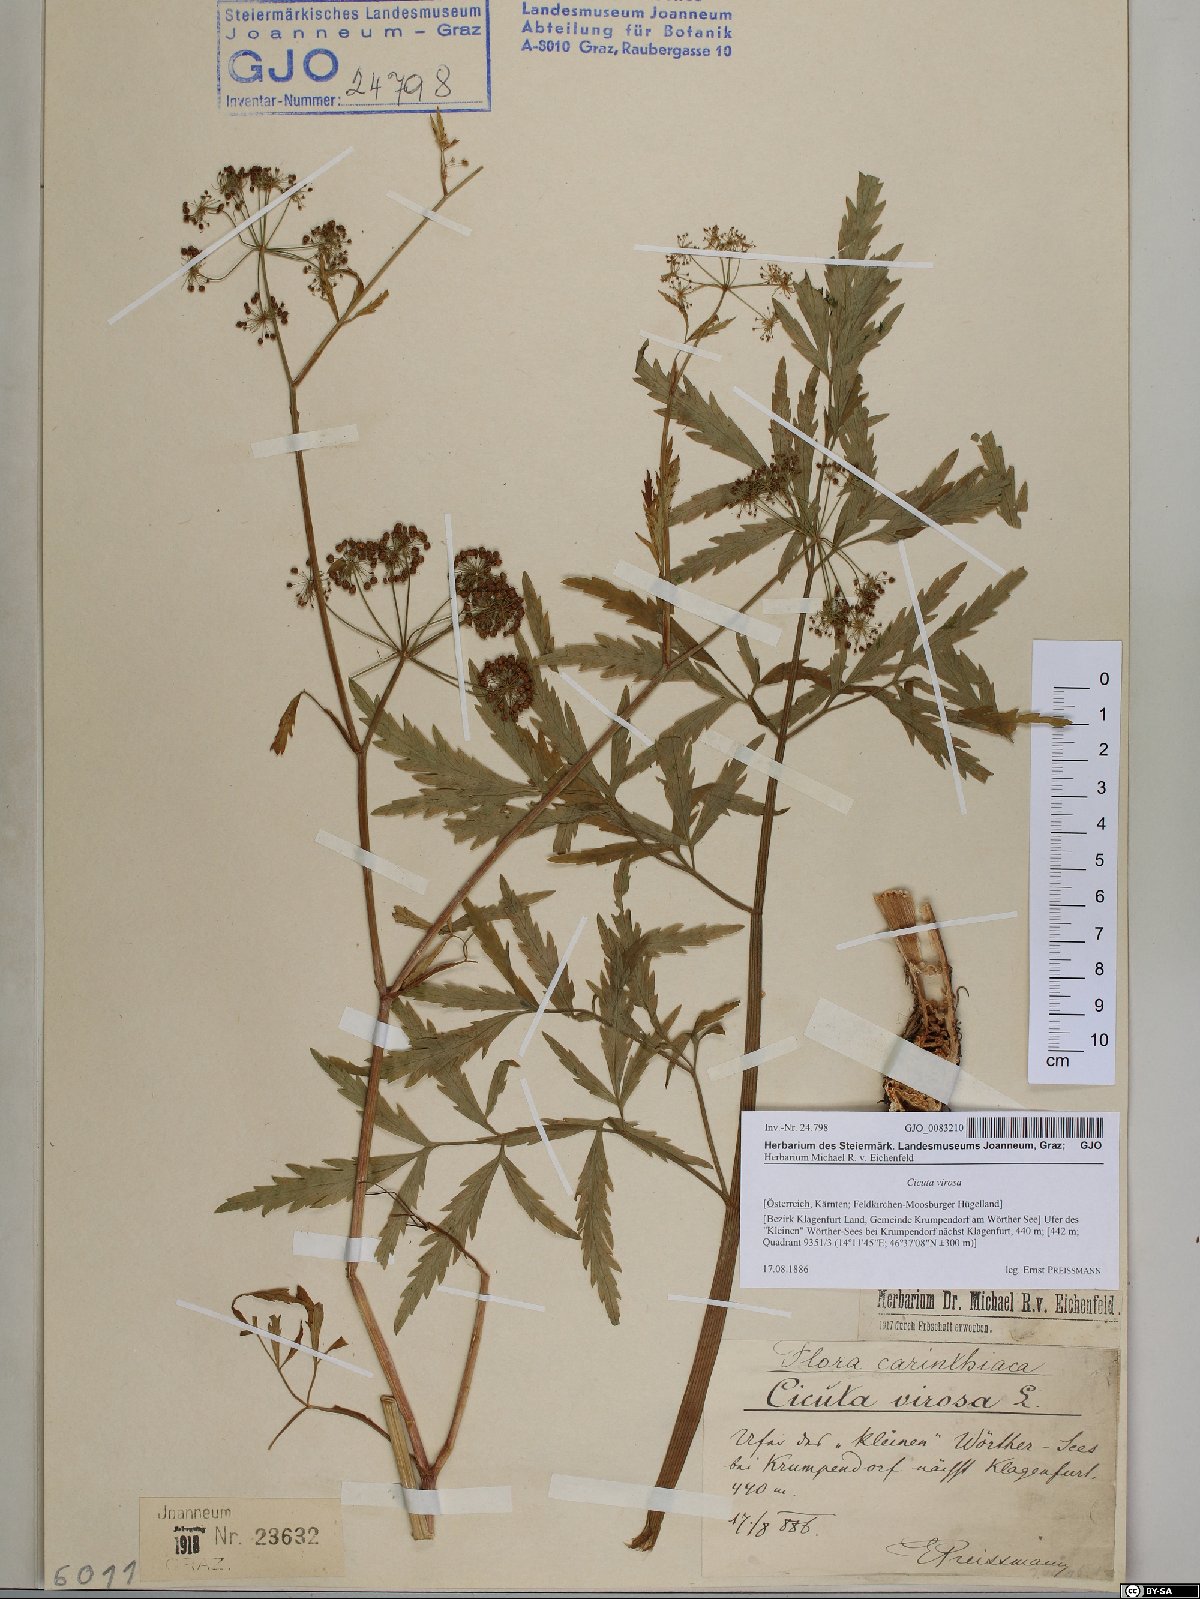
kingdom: Plantae
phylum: Tracheophyta
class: Magnoliopsida
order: Apiales
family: Apiaceae
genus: Cicuta
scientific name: Cicuta virosa
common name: Cowbane
